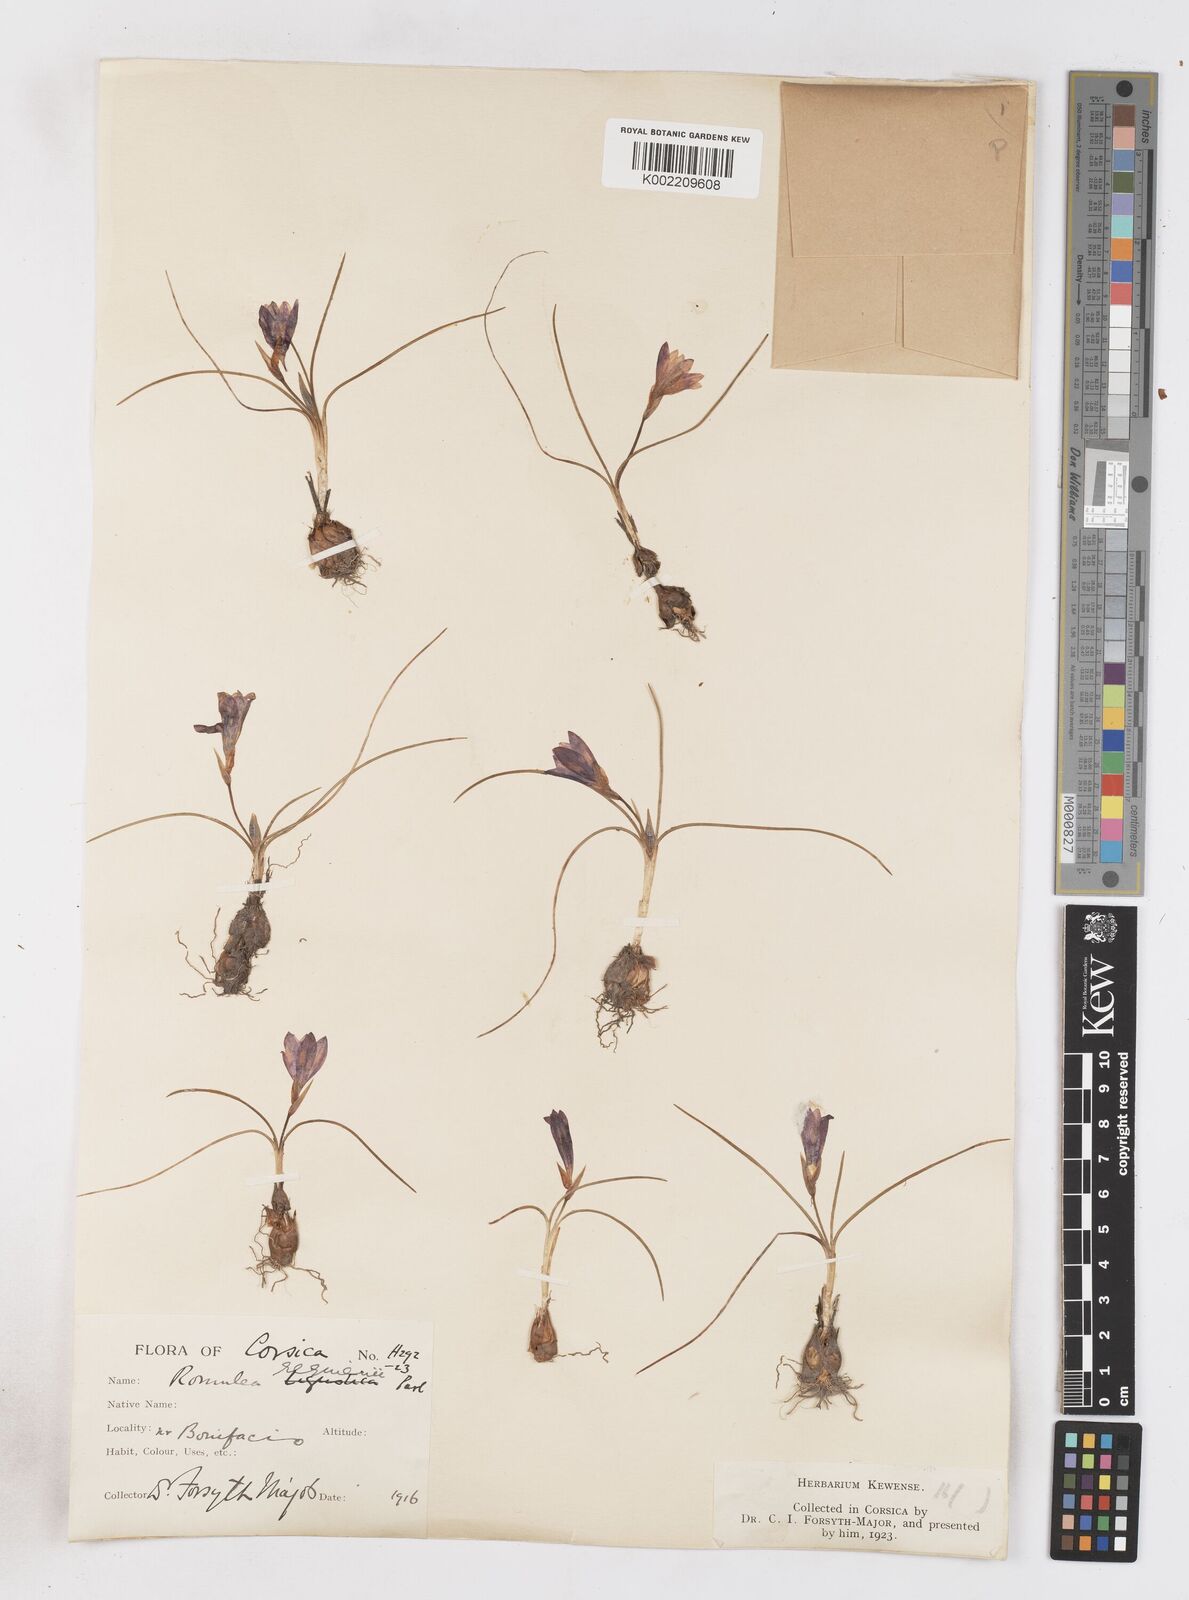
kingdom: Plantae
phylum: Tracheophyta
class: Liliopsida
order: Asparagales
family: Iridaceae
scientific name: Iridaceae
